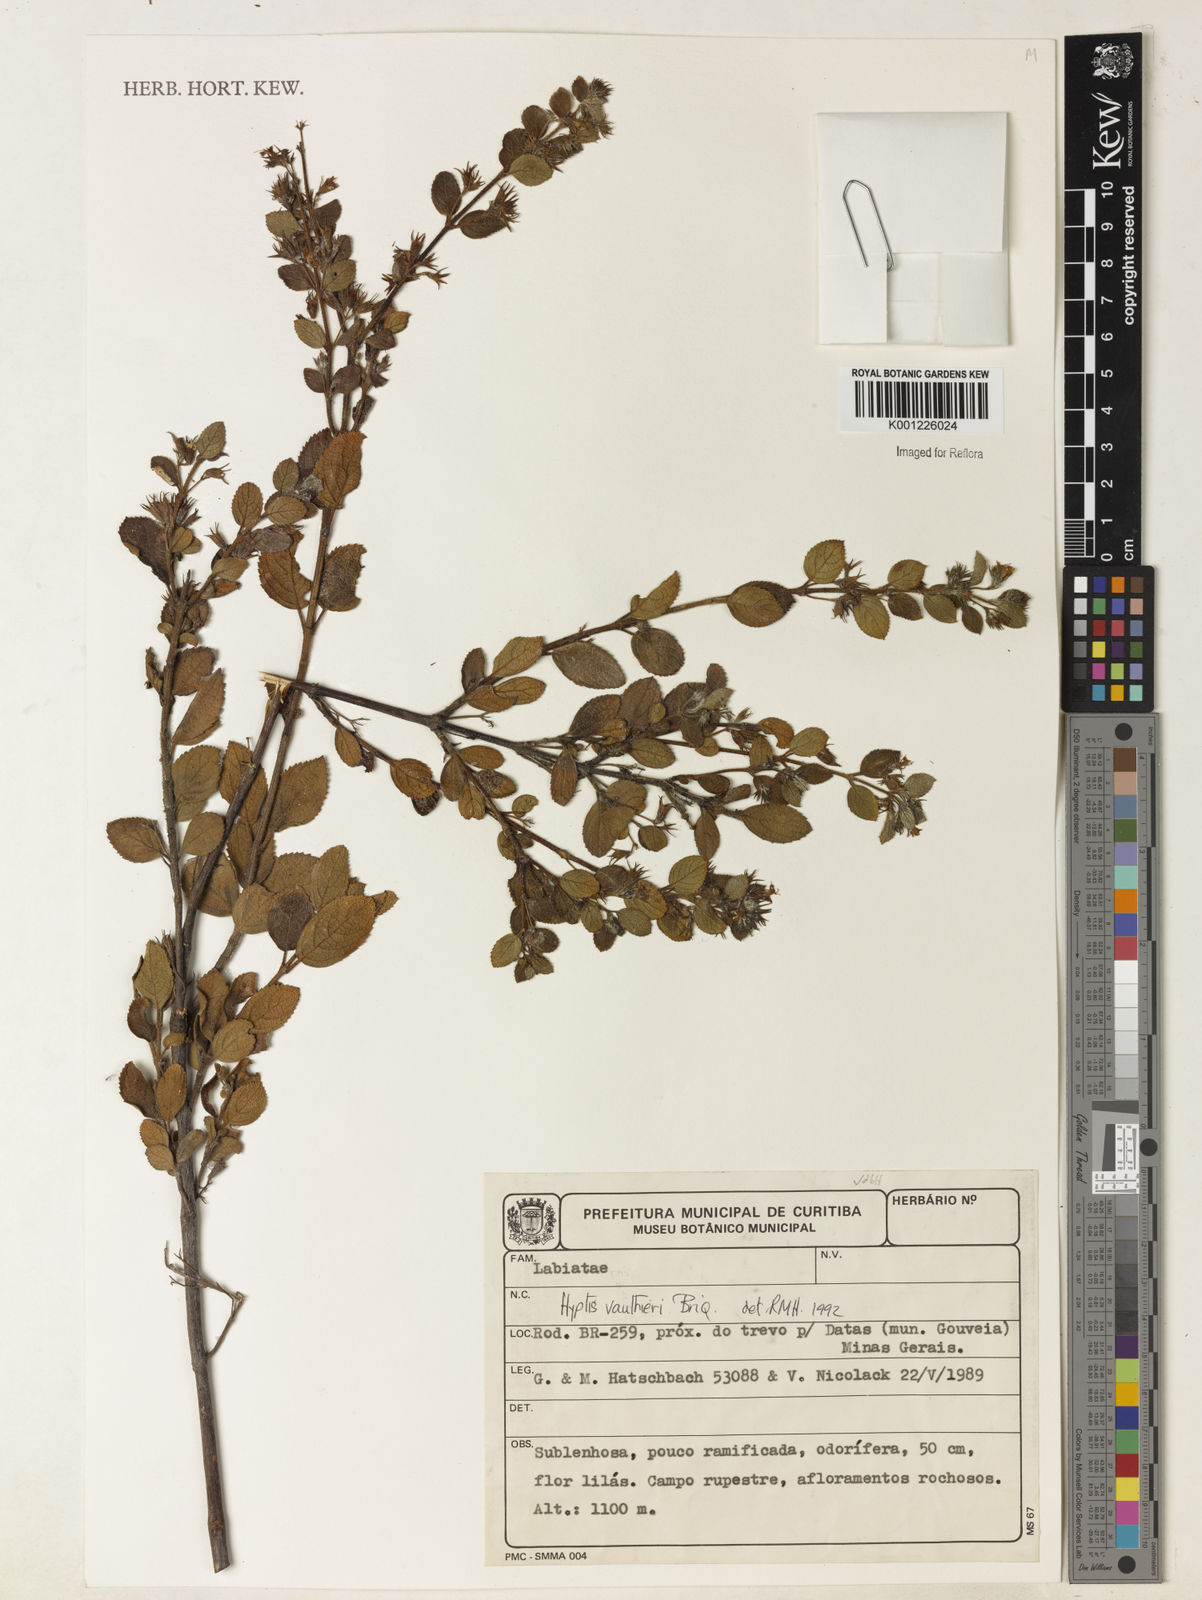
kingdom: Plantae
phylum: Tracheophyta
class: Magnoliopsida
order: Lamiales
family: Lamiaceae
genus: Hyptidendron
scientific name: Hyptidendron vauthieri
